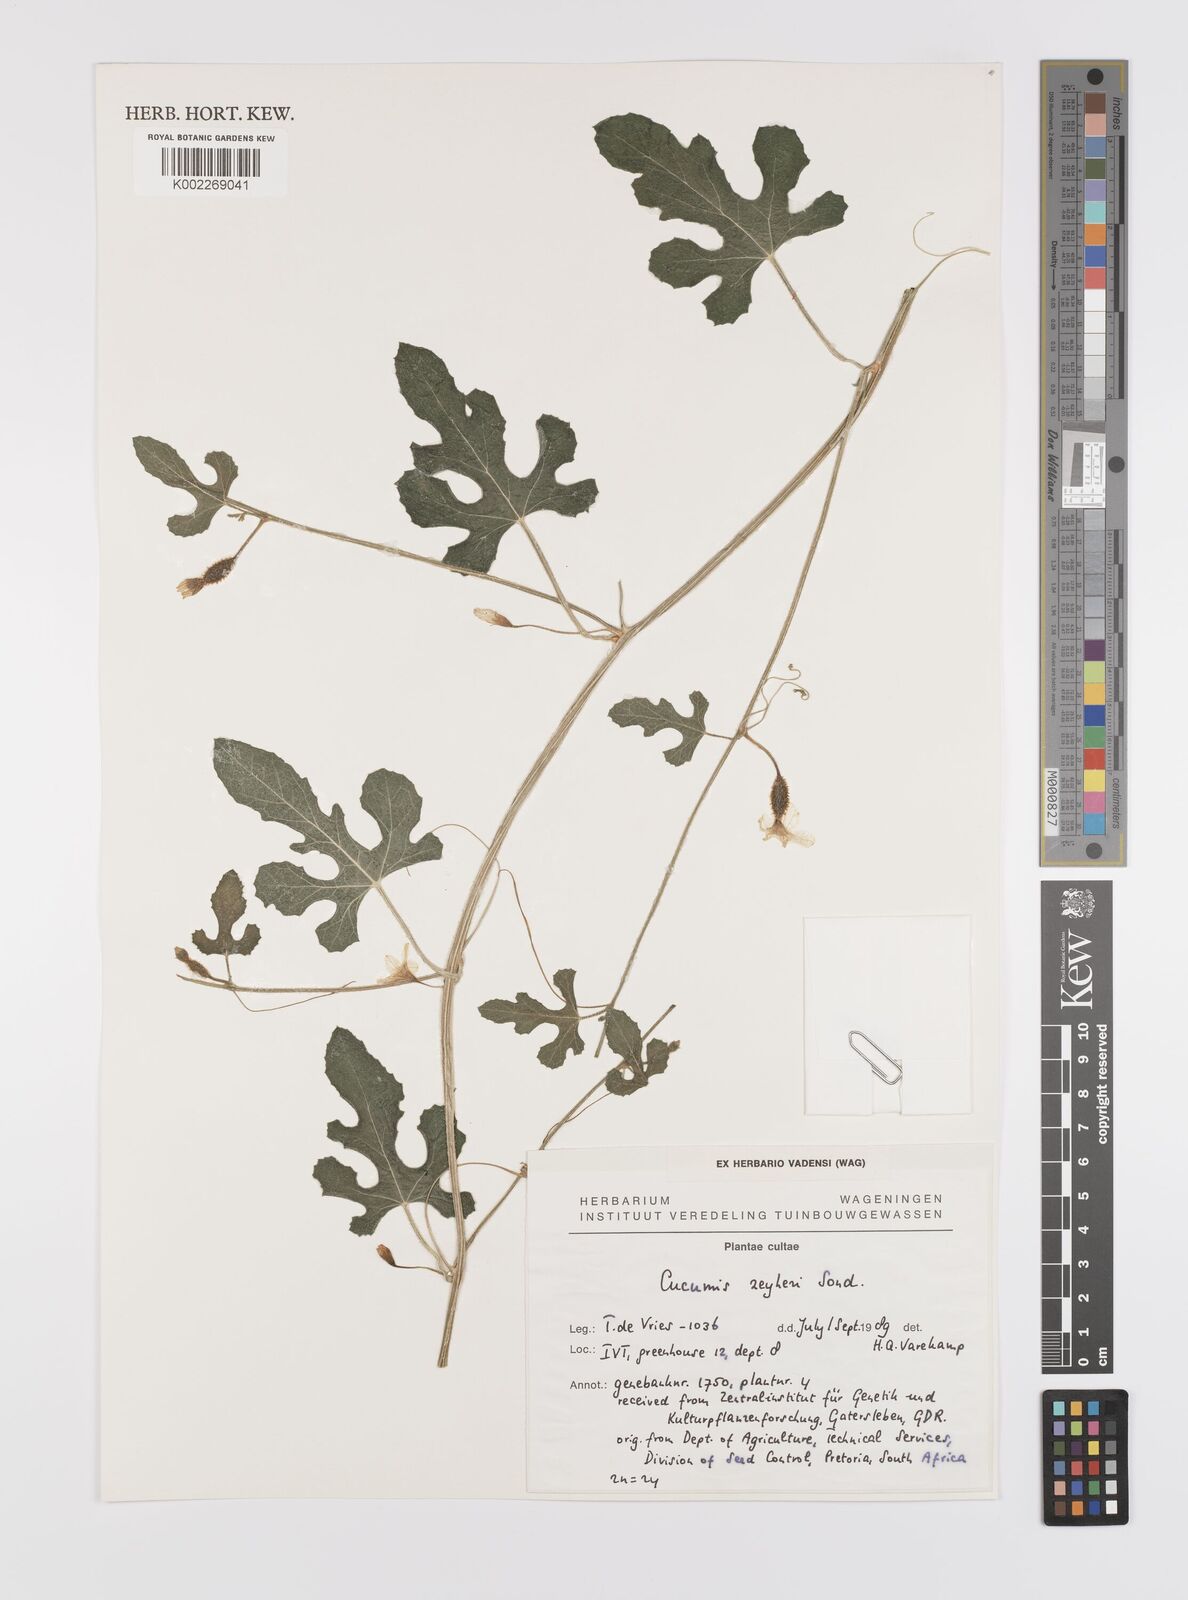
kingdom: Plantae
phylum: Tracheophyta
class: Magnoliopsida
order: Cucurbitales
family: Cucurbitaceae
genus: Cucumis
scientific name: Cucumis sativus
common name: Cucumber
